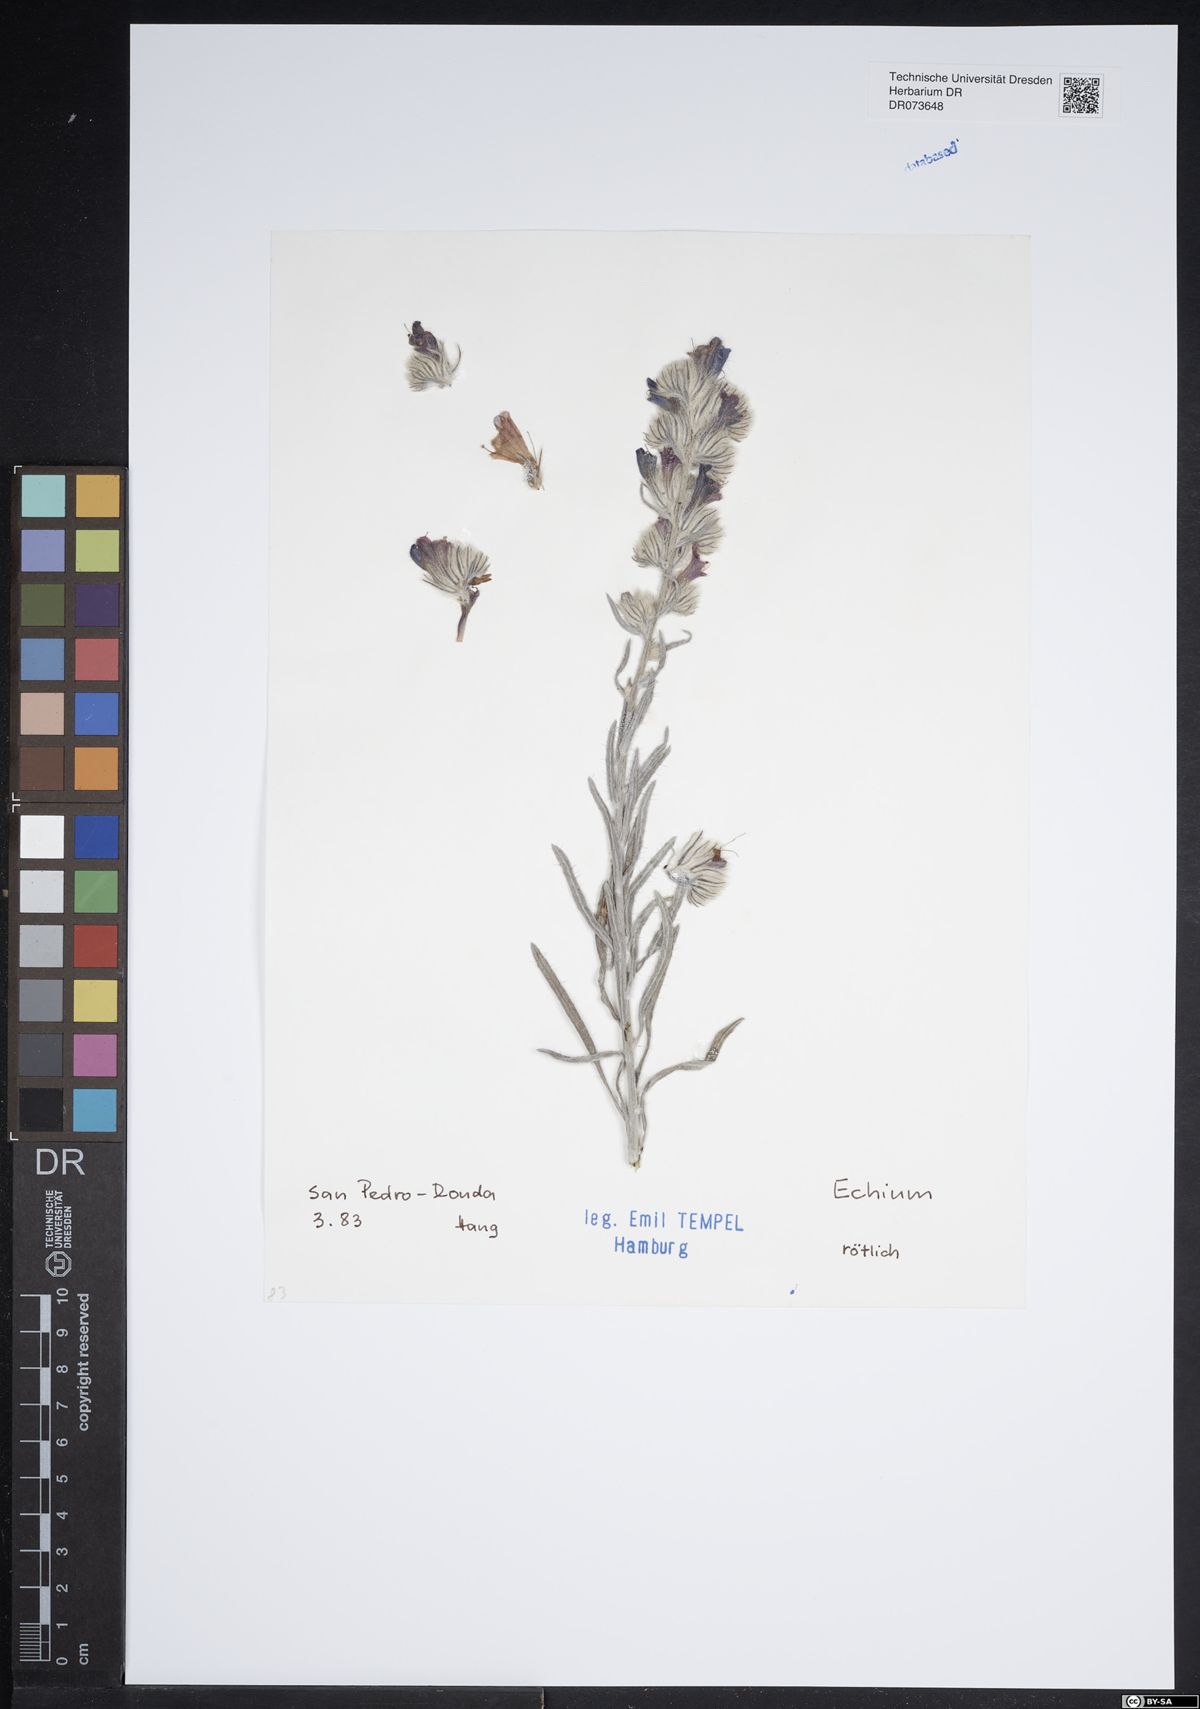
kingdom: Plantae
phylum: Tracheophyta
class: Magnoliopsida
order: Boraginales
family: Boraginaceae
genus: Echium
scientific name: Echium
